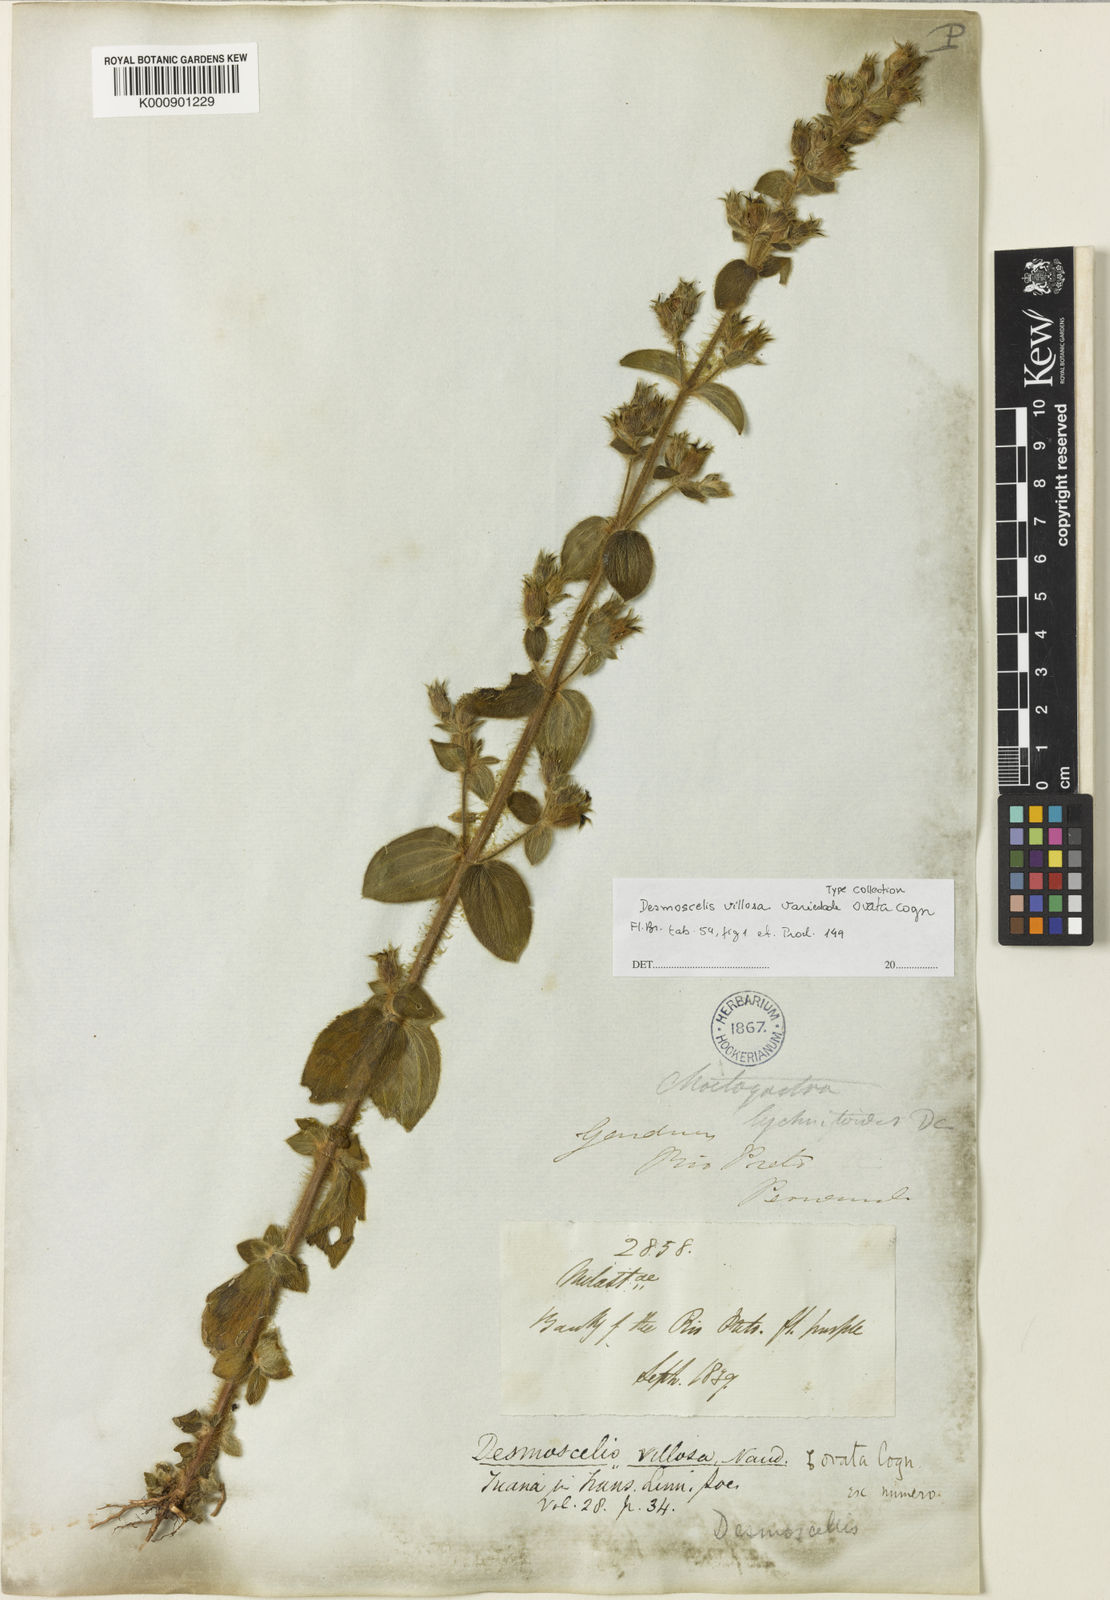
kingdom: Plantae
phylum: Tracheophyta
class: Magnoliopsida
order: Myrtales
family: Melastomataceae
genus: Desmoscelis
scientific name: Desmoscelis villosa
